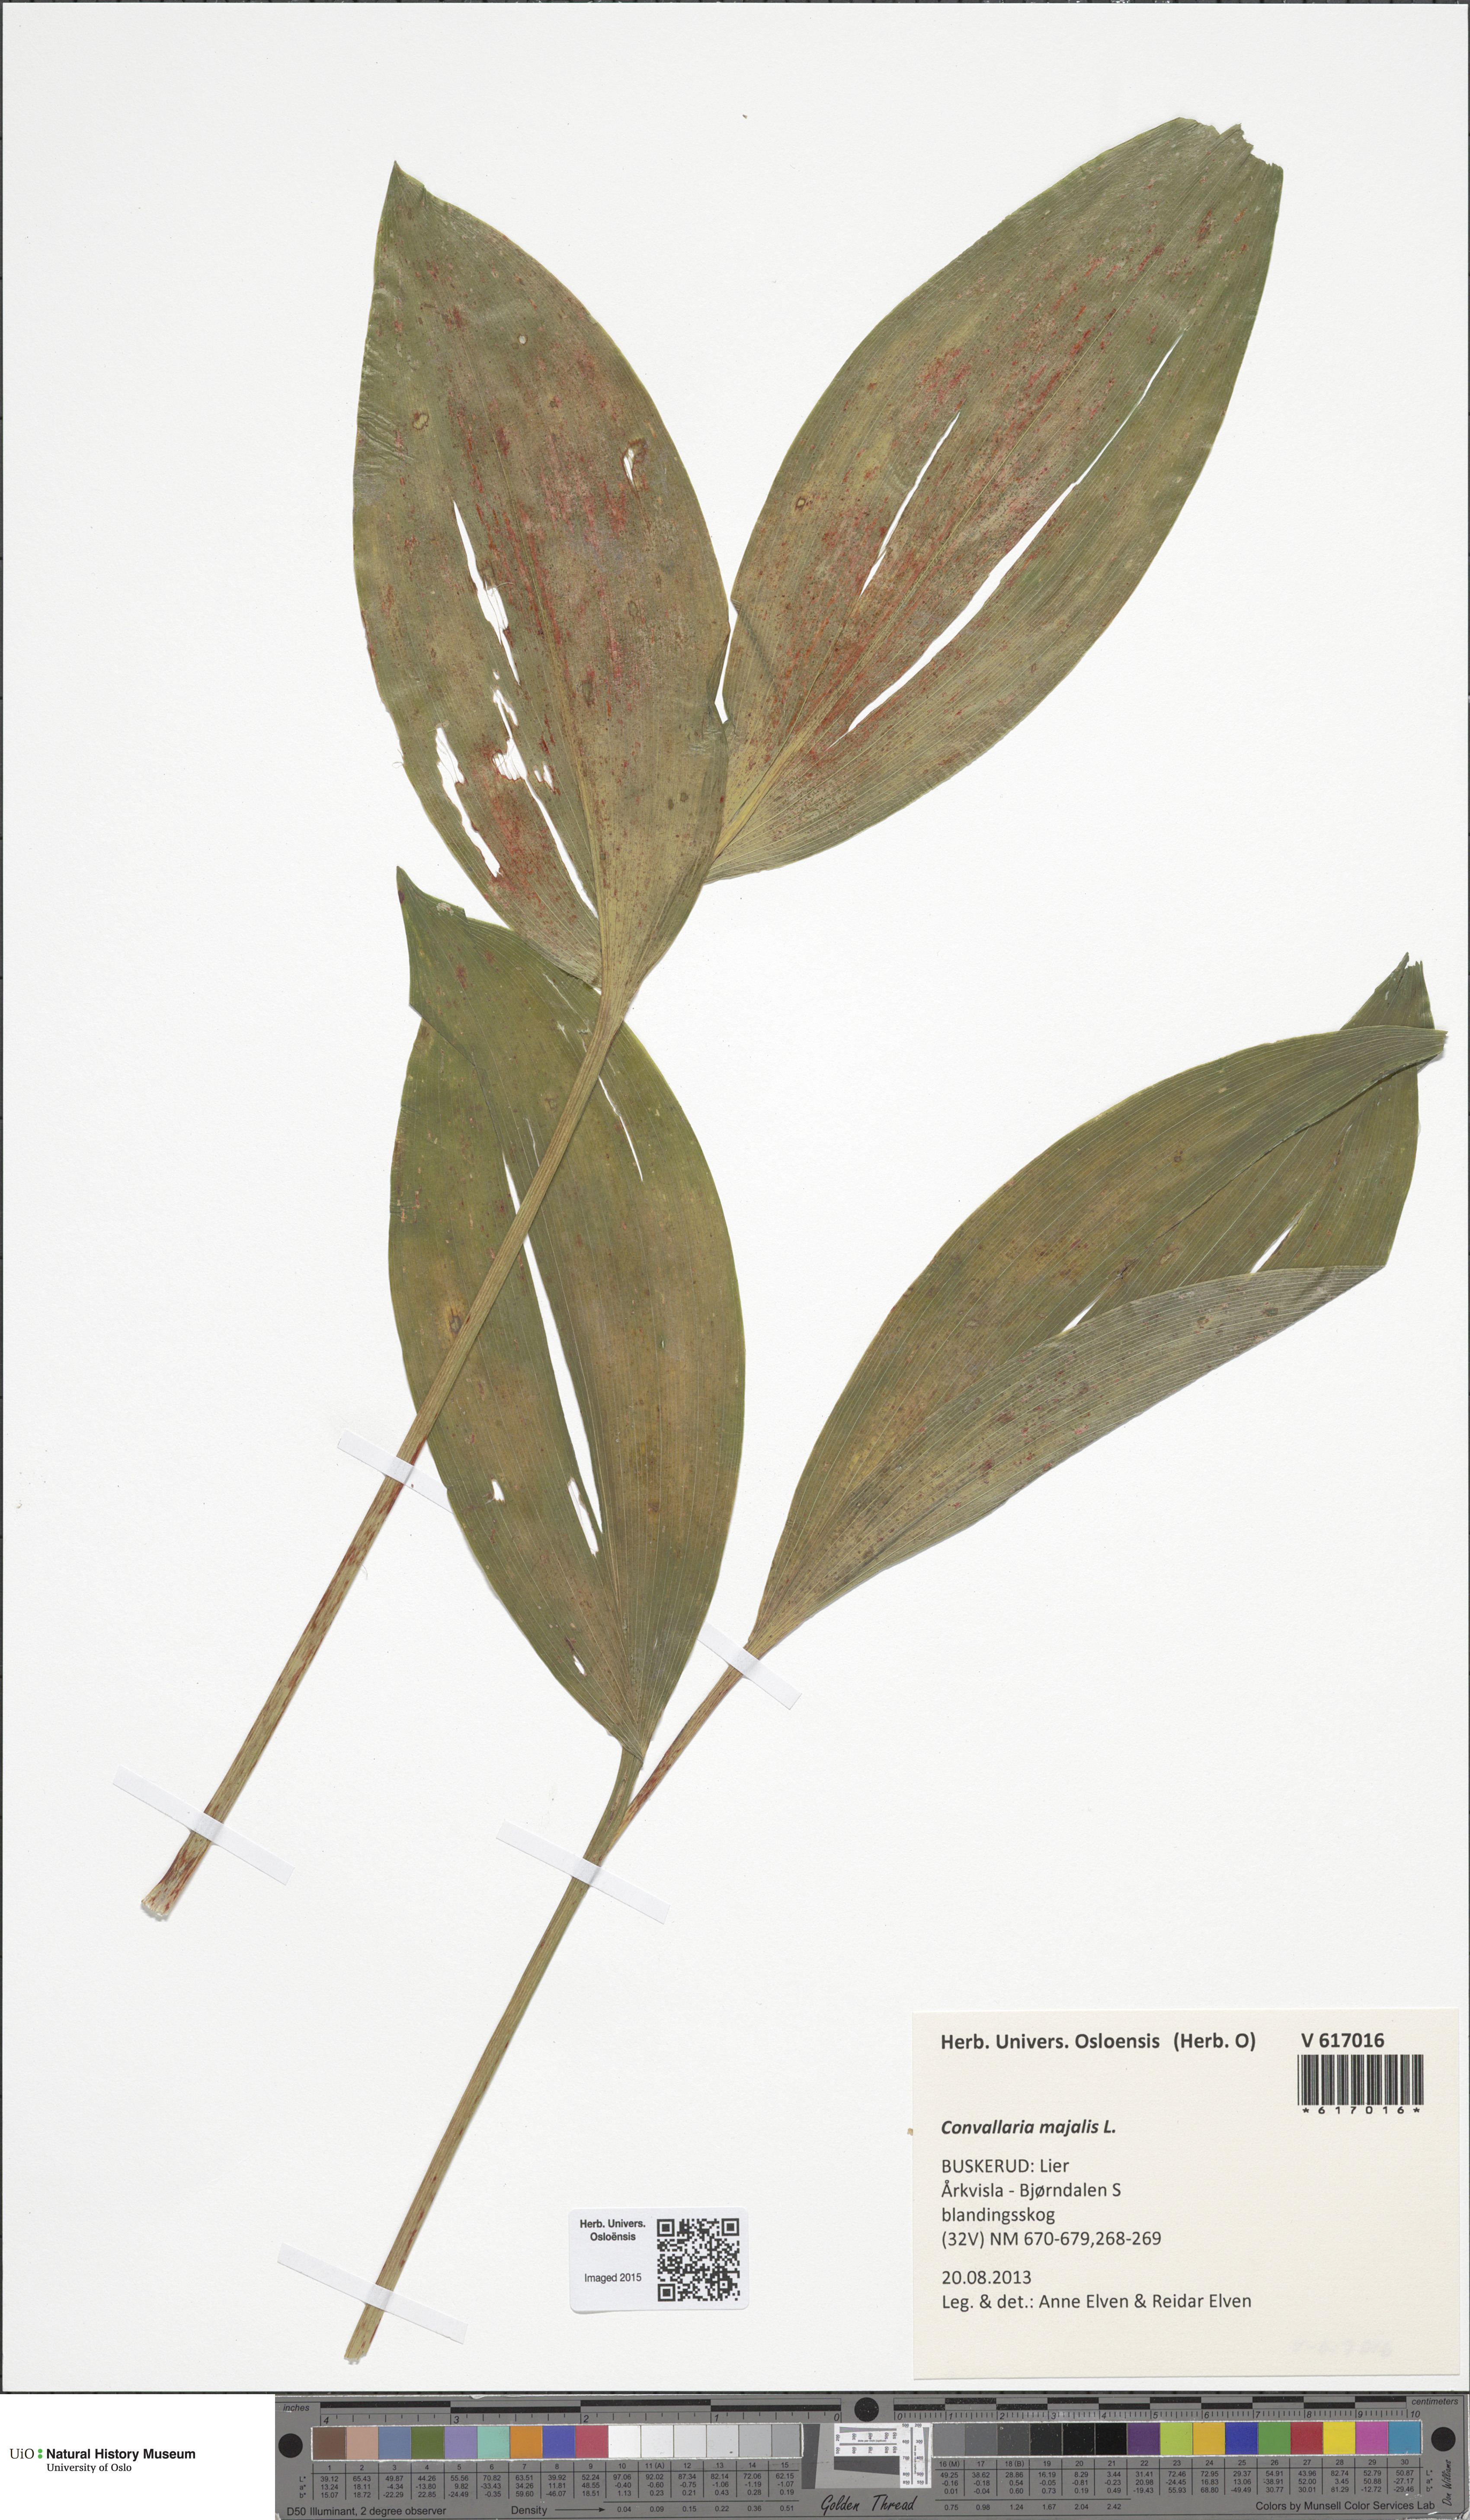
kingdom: Plantae
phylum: Tracheophyta
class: Liliopsida
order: Asparagales
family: Asparagaceae
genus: Convallaria
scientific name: Convallaria majalis
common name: Lily-of-the-valley
